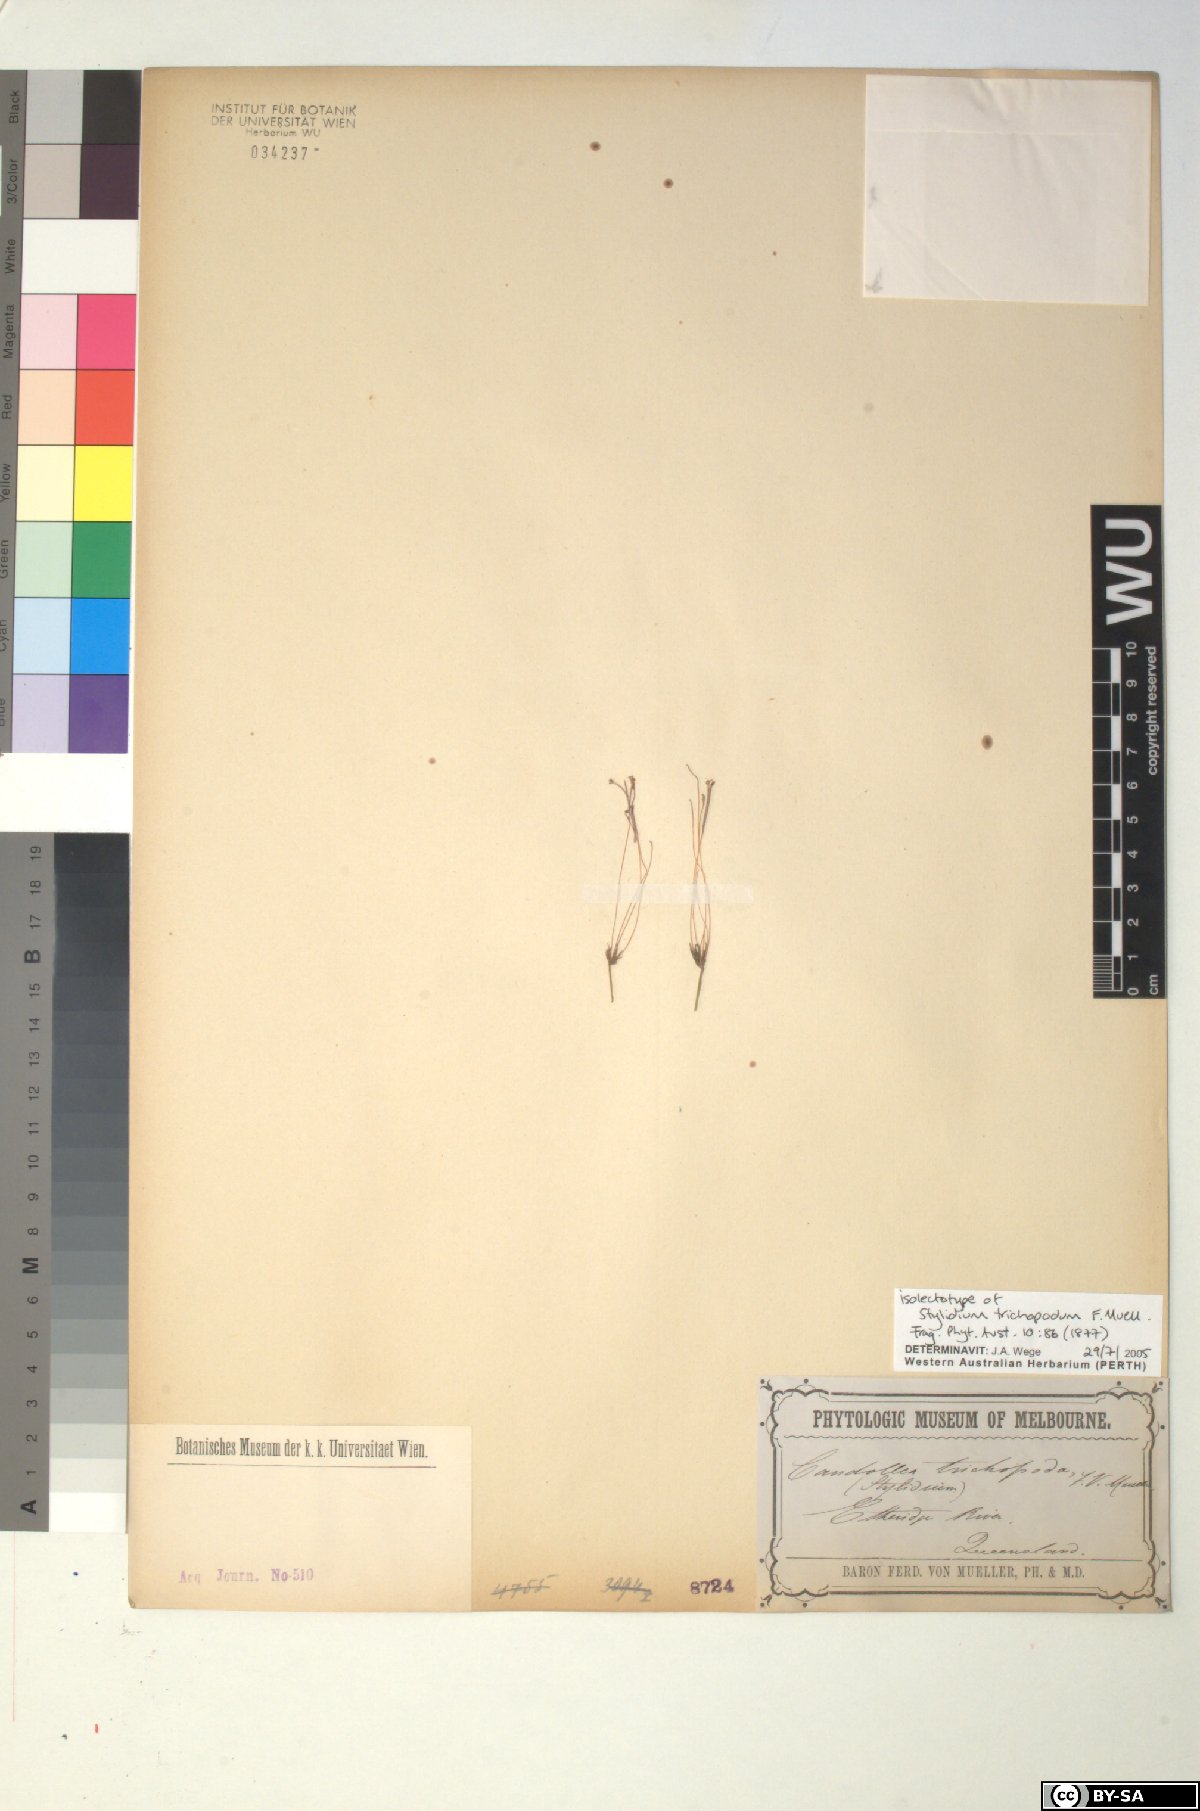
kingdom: Plantae
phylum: Tracheophyta
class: Magnoliopsida
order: Asterales
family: Stylidiaceae
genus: Stylidium
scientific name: Stylidium trichopodum
